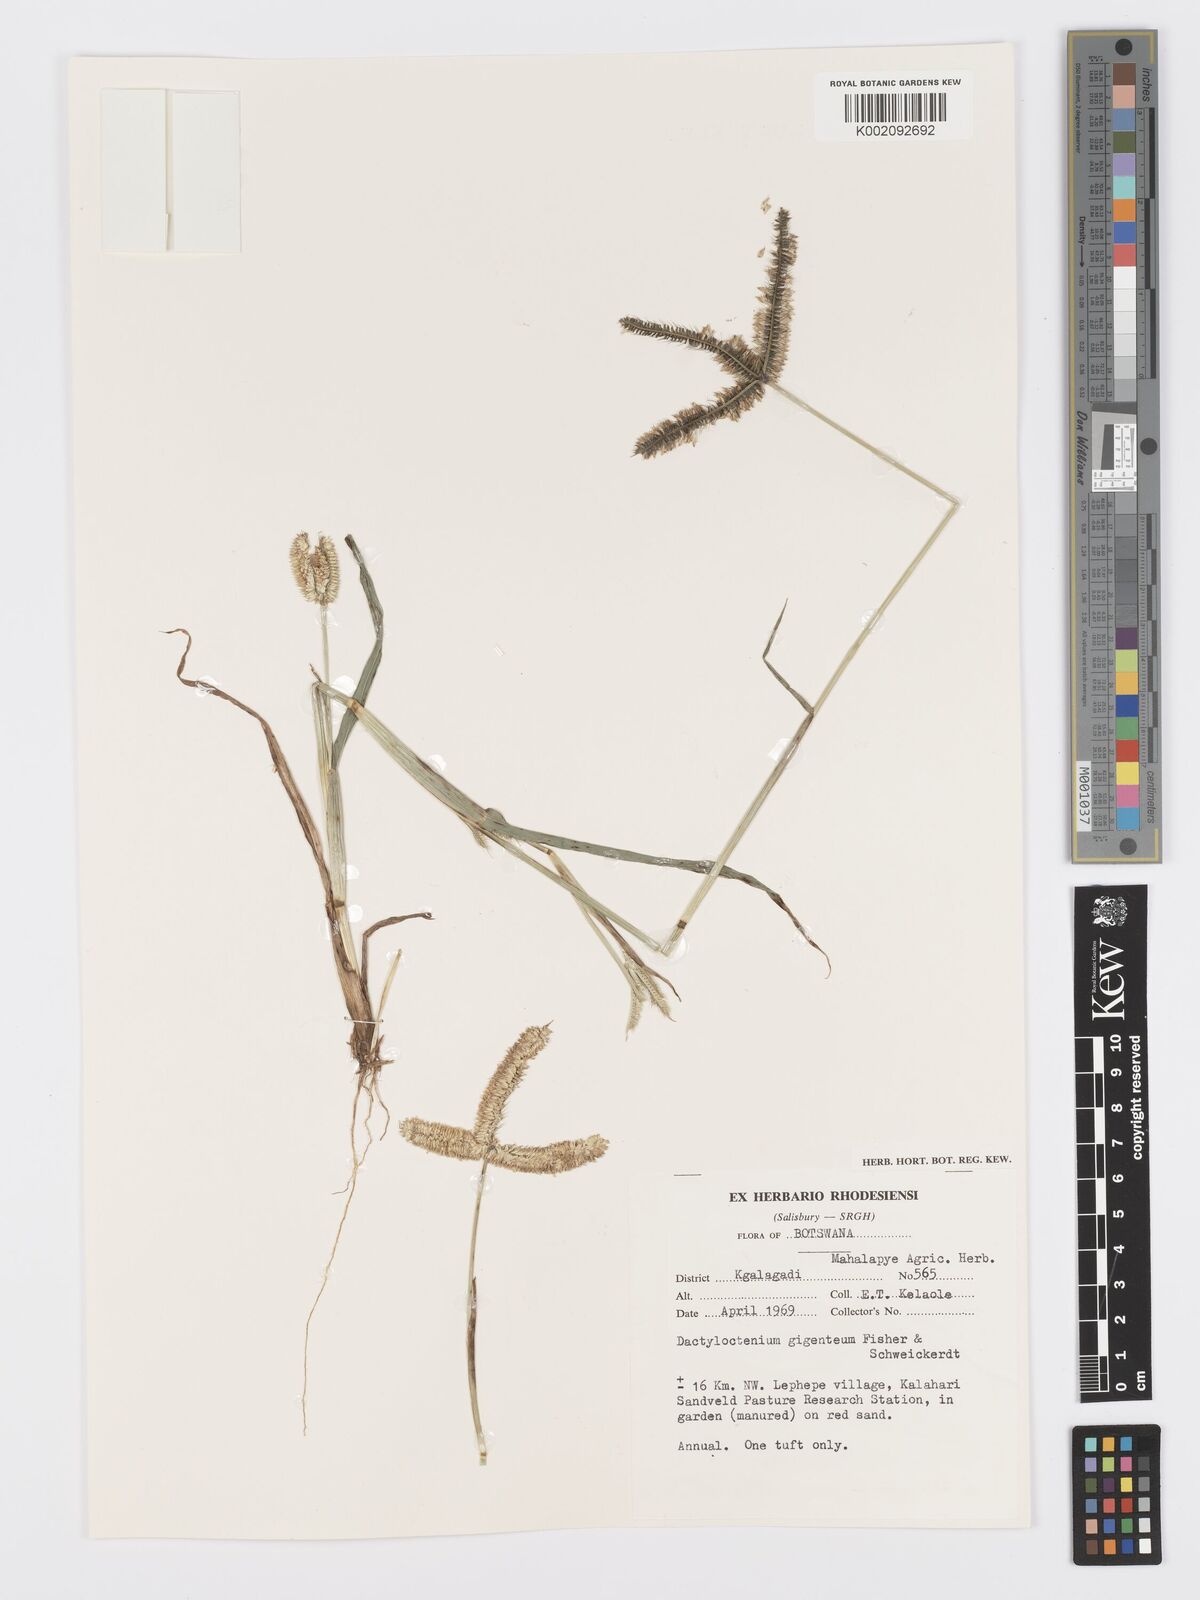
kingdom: Plantae
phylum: Tracheophyta
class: Liliopsida
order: Poales
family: Poaceae
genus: Dactyloctenium
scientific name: Dactyloctenium giganteum
